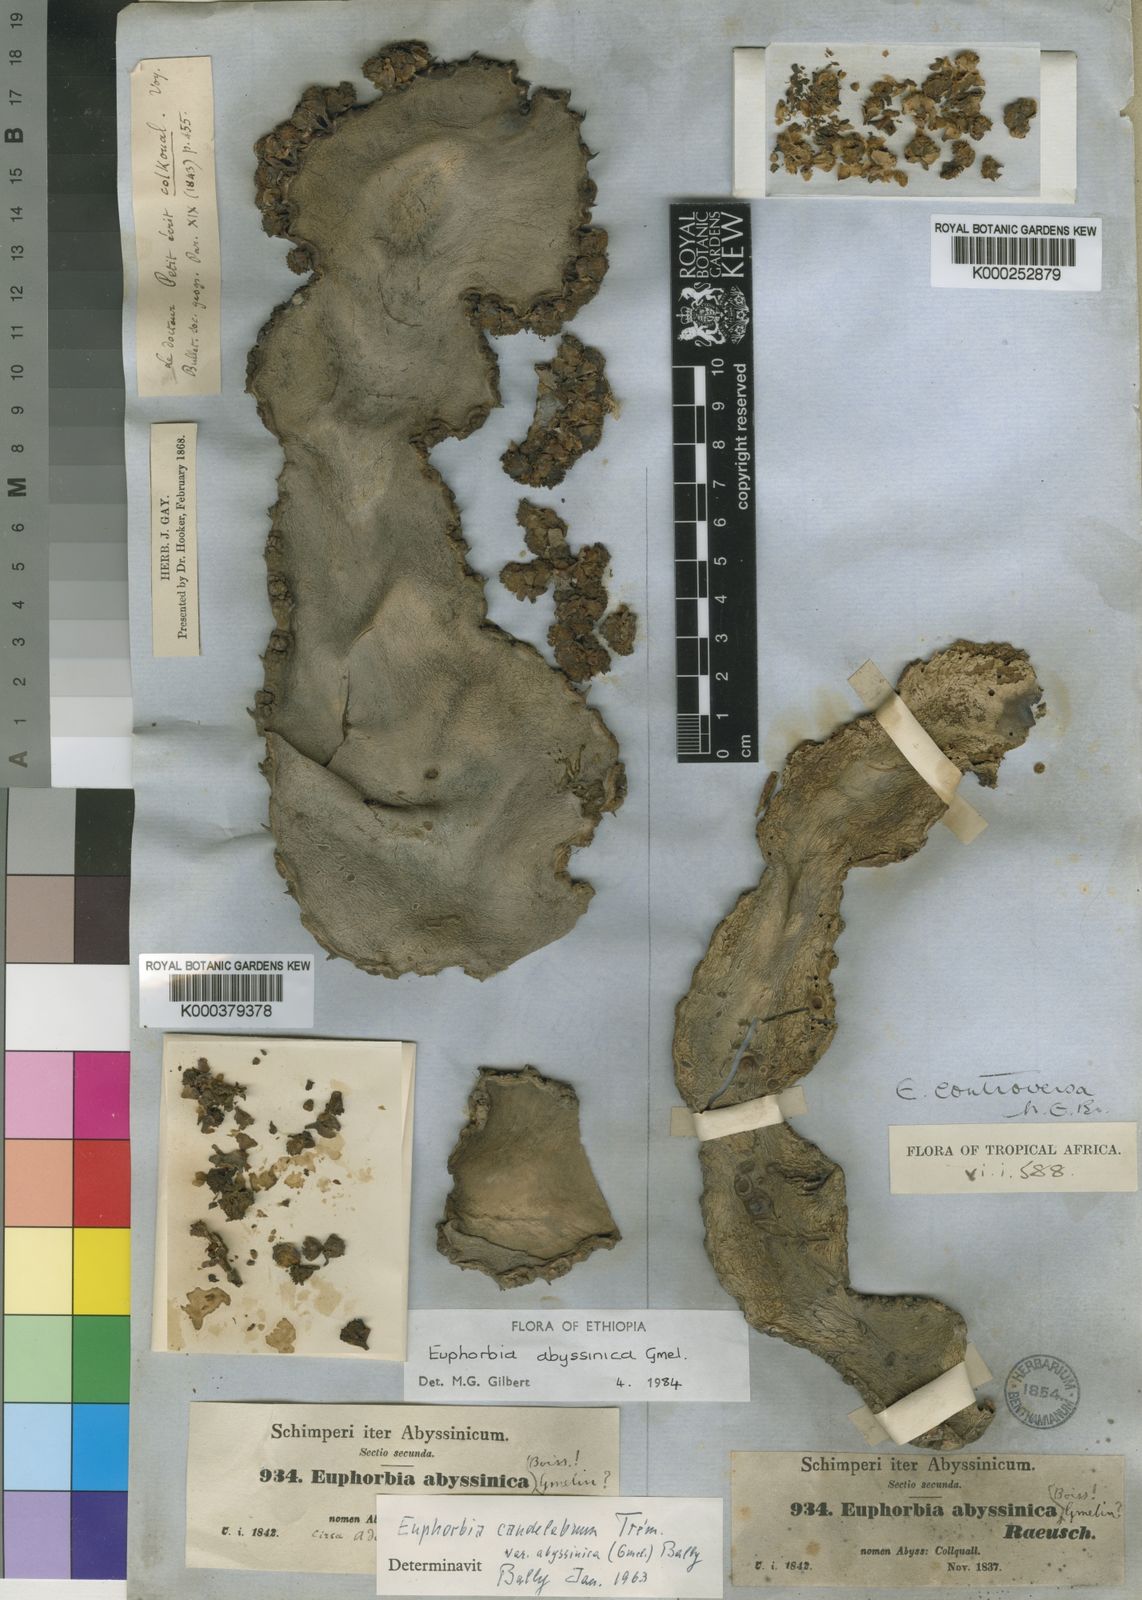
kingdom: Plantae
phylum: Tracheophyta
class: Magnoliopsida
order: Malpighiales
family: Euphorbiaceae
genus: Euphorbia
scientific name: Euphorbia abyssinica
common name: Abyssinian spurge
